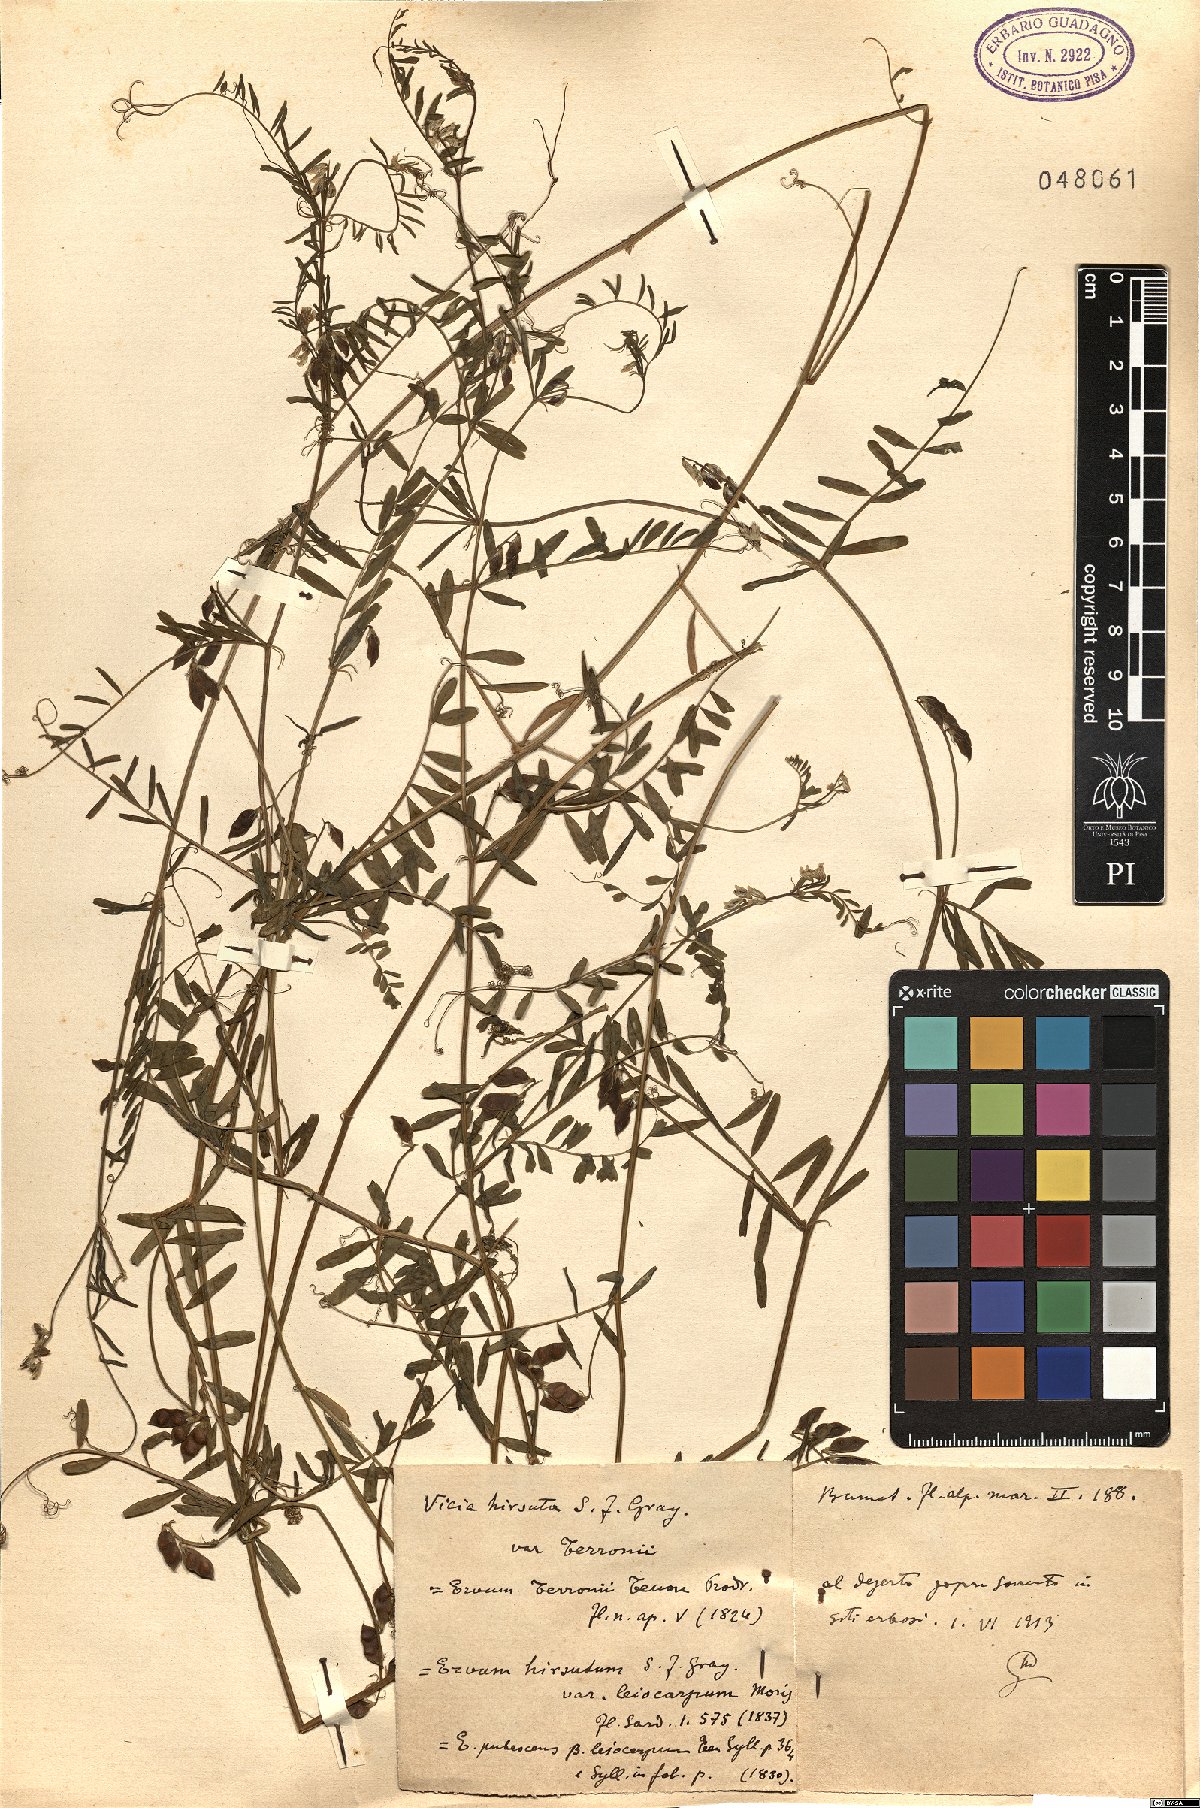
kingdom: Plantae
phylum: Tracheophyta
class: Magnoliopsida
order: Fabales
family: Fabaceae
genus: Vicia
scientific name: Vicia loiseleurii
